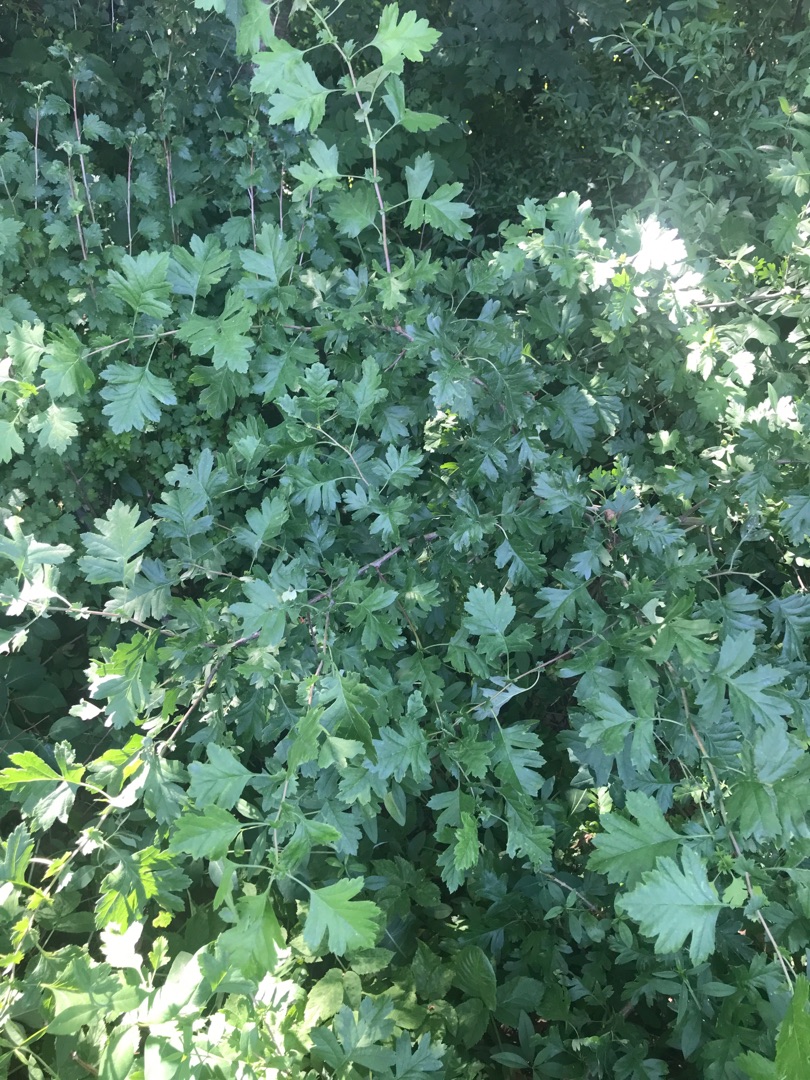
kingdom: Plantae
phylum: Tracheophyta
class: Magnoliopsida
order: Rosales
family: Rosaceae
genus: Crataegus
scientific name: Crataegus monogyna
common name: Engriflet hvidtjørn
